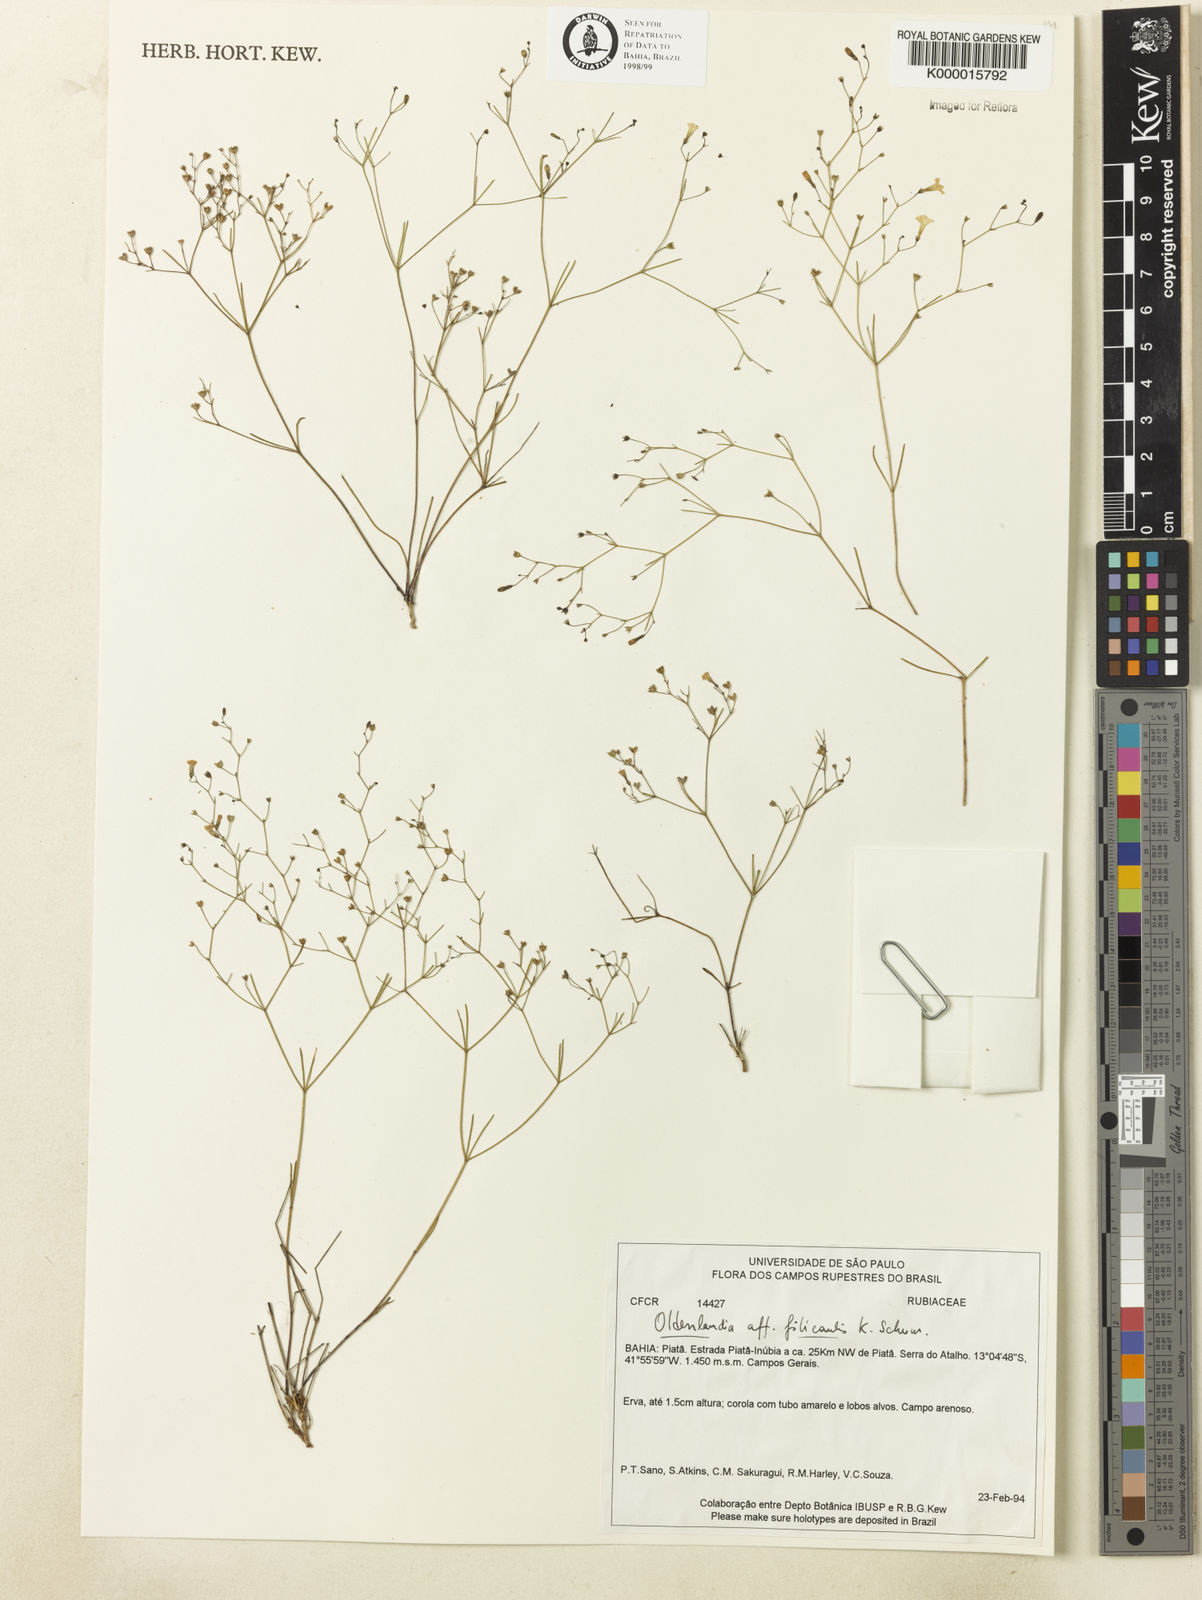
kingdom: Plantae
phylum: Tracheophyta
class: Magnoliopsida
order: Gentianales
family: Rubiaceae
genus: Oldenlandia
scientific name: Oldenlandia filicaulis
